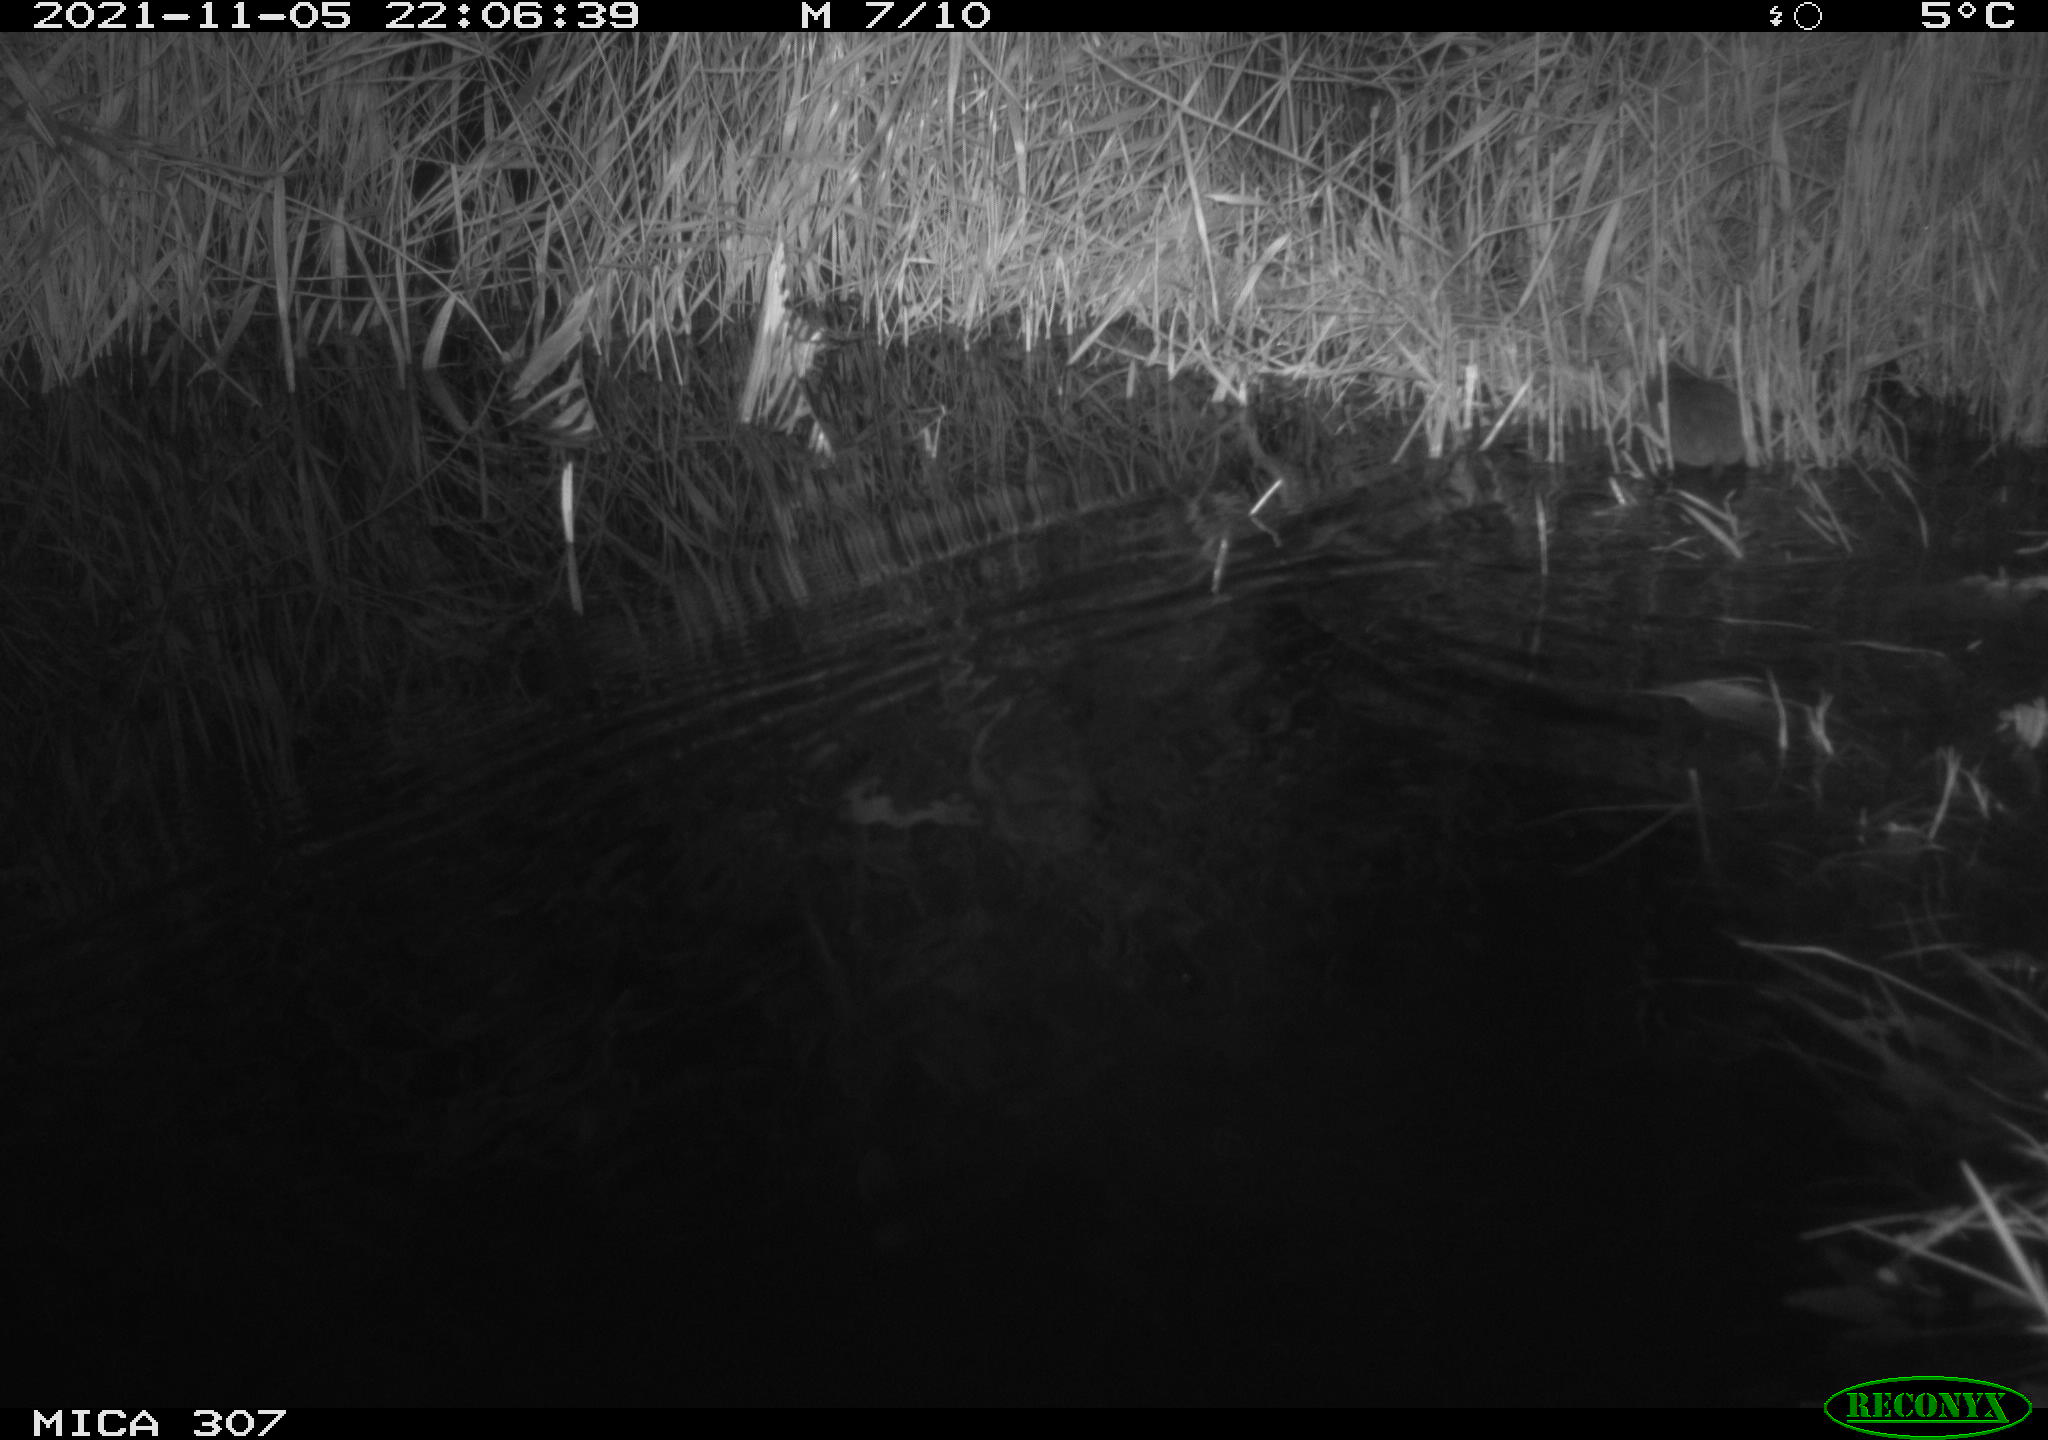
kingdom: Animalia
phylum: Chordata
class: Mammalia
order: Rodentia
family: Muridae
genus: Rattus
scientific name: Rattus norvegicus
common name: Brown rat
